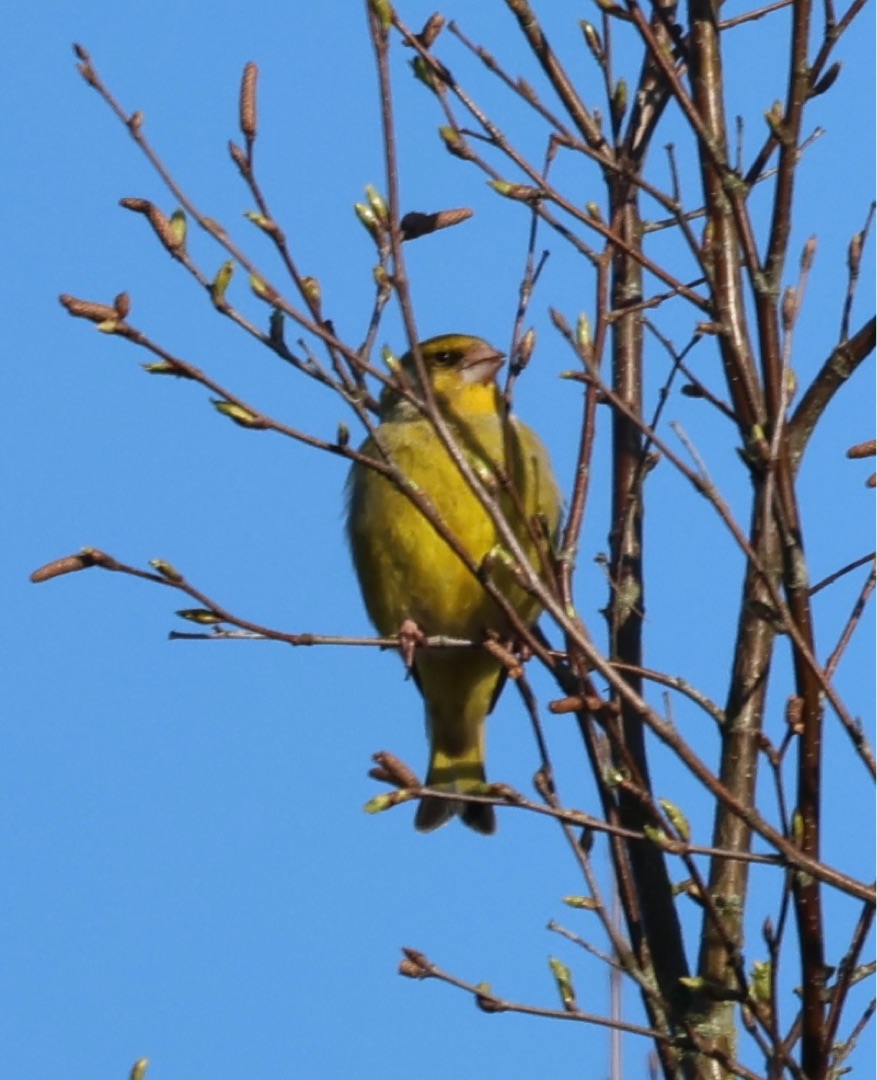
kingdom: Plantae
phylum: Tracheophyta
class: Liliopsida
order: Poales
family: Poaceae
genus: Chloris
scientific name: Chloris chloris
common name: Grønirisk
